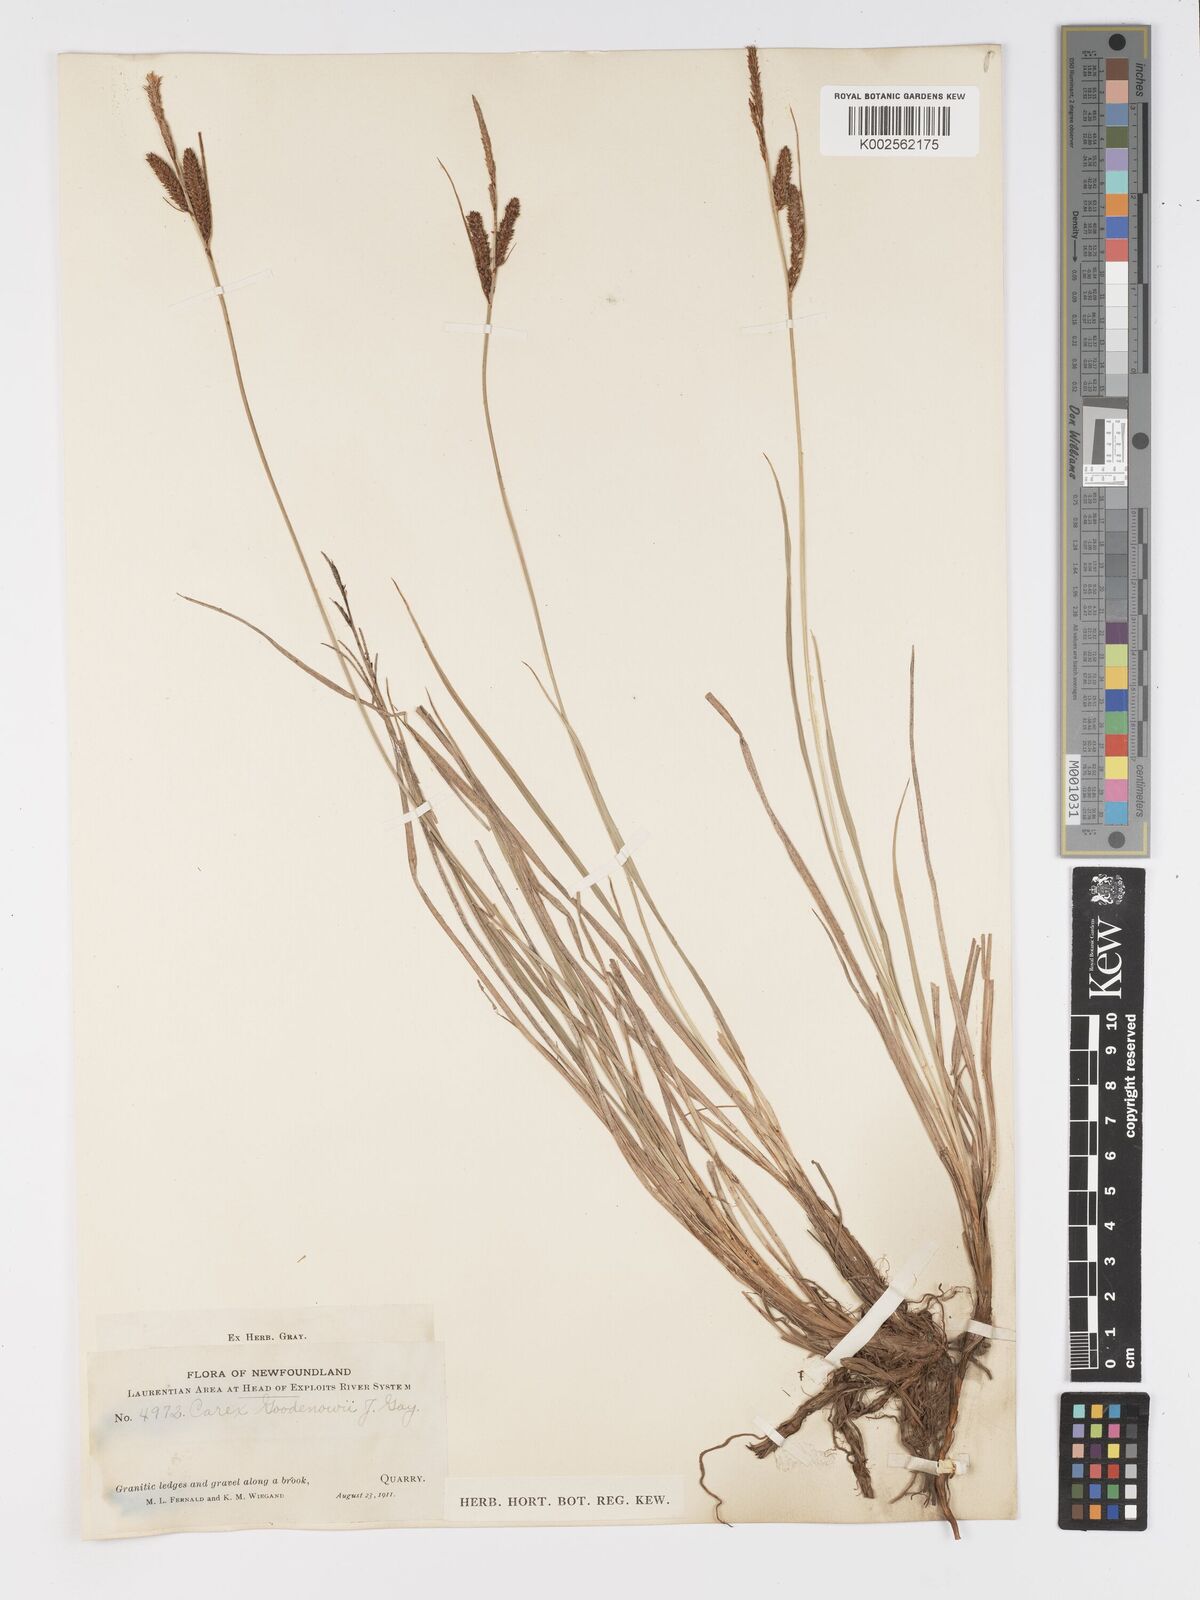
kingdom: Plantae
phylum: Tracheophyta
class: Liliopsida
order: Poales
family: Cyperaceae
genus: Carex
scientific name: Carex nigra
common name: Common sedge
